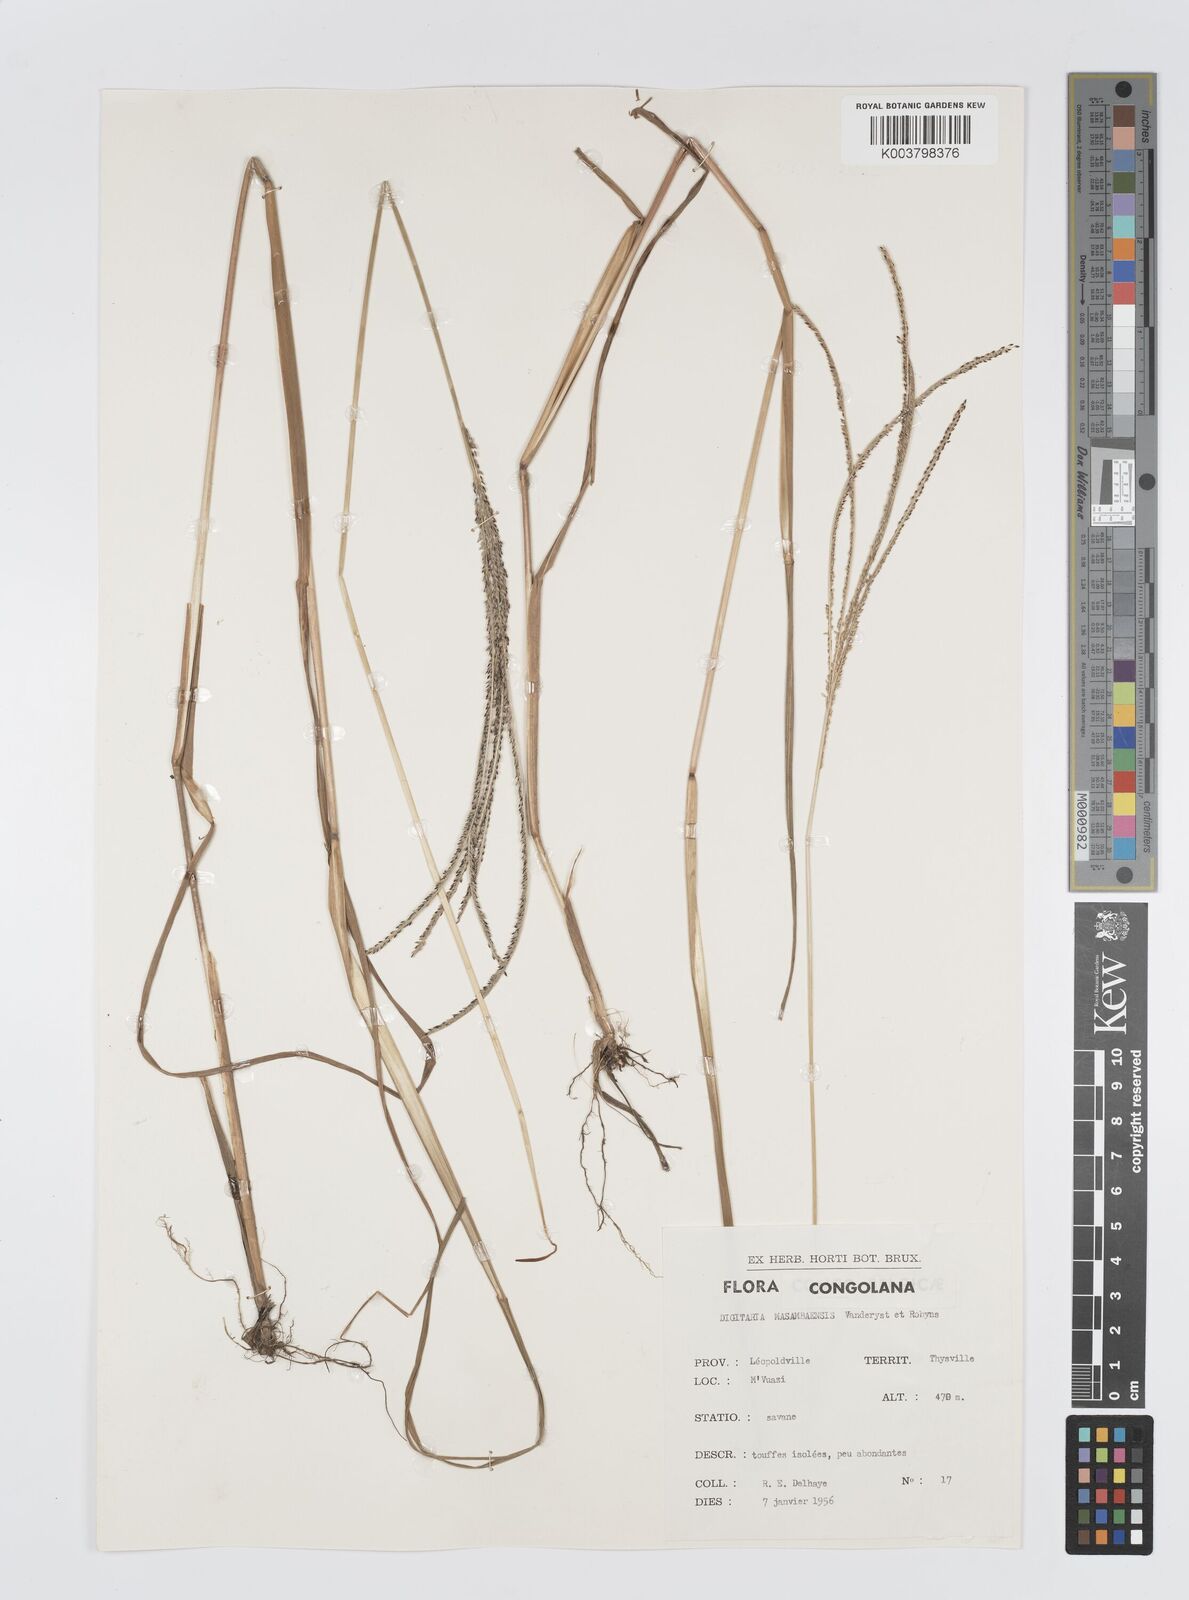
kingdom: Plantae
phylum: Tracheophyta
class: Liliopsida
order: Poales
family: Poaceae
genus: Digitaria
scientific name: Digitaria atrofusca
